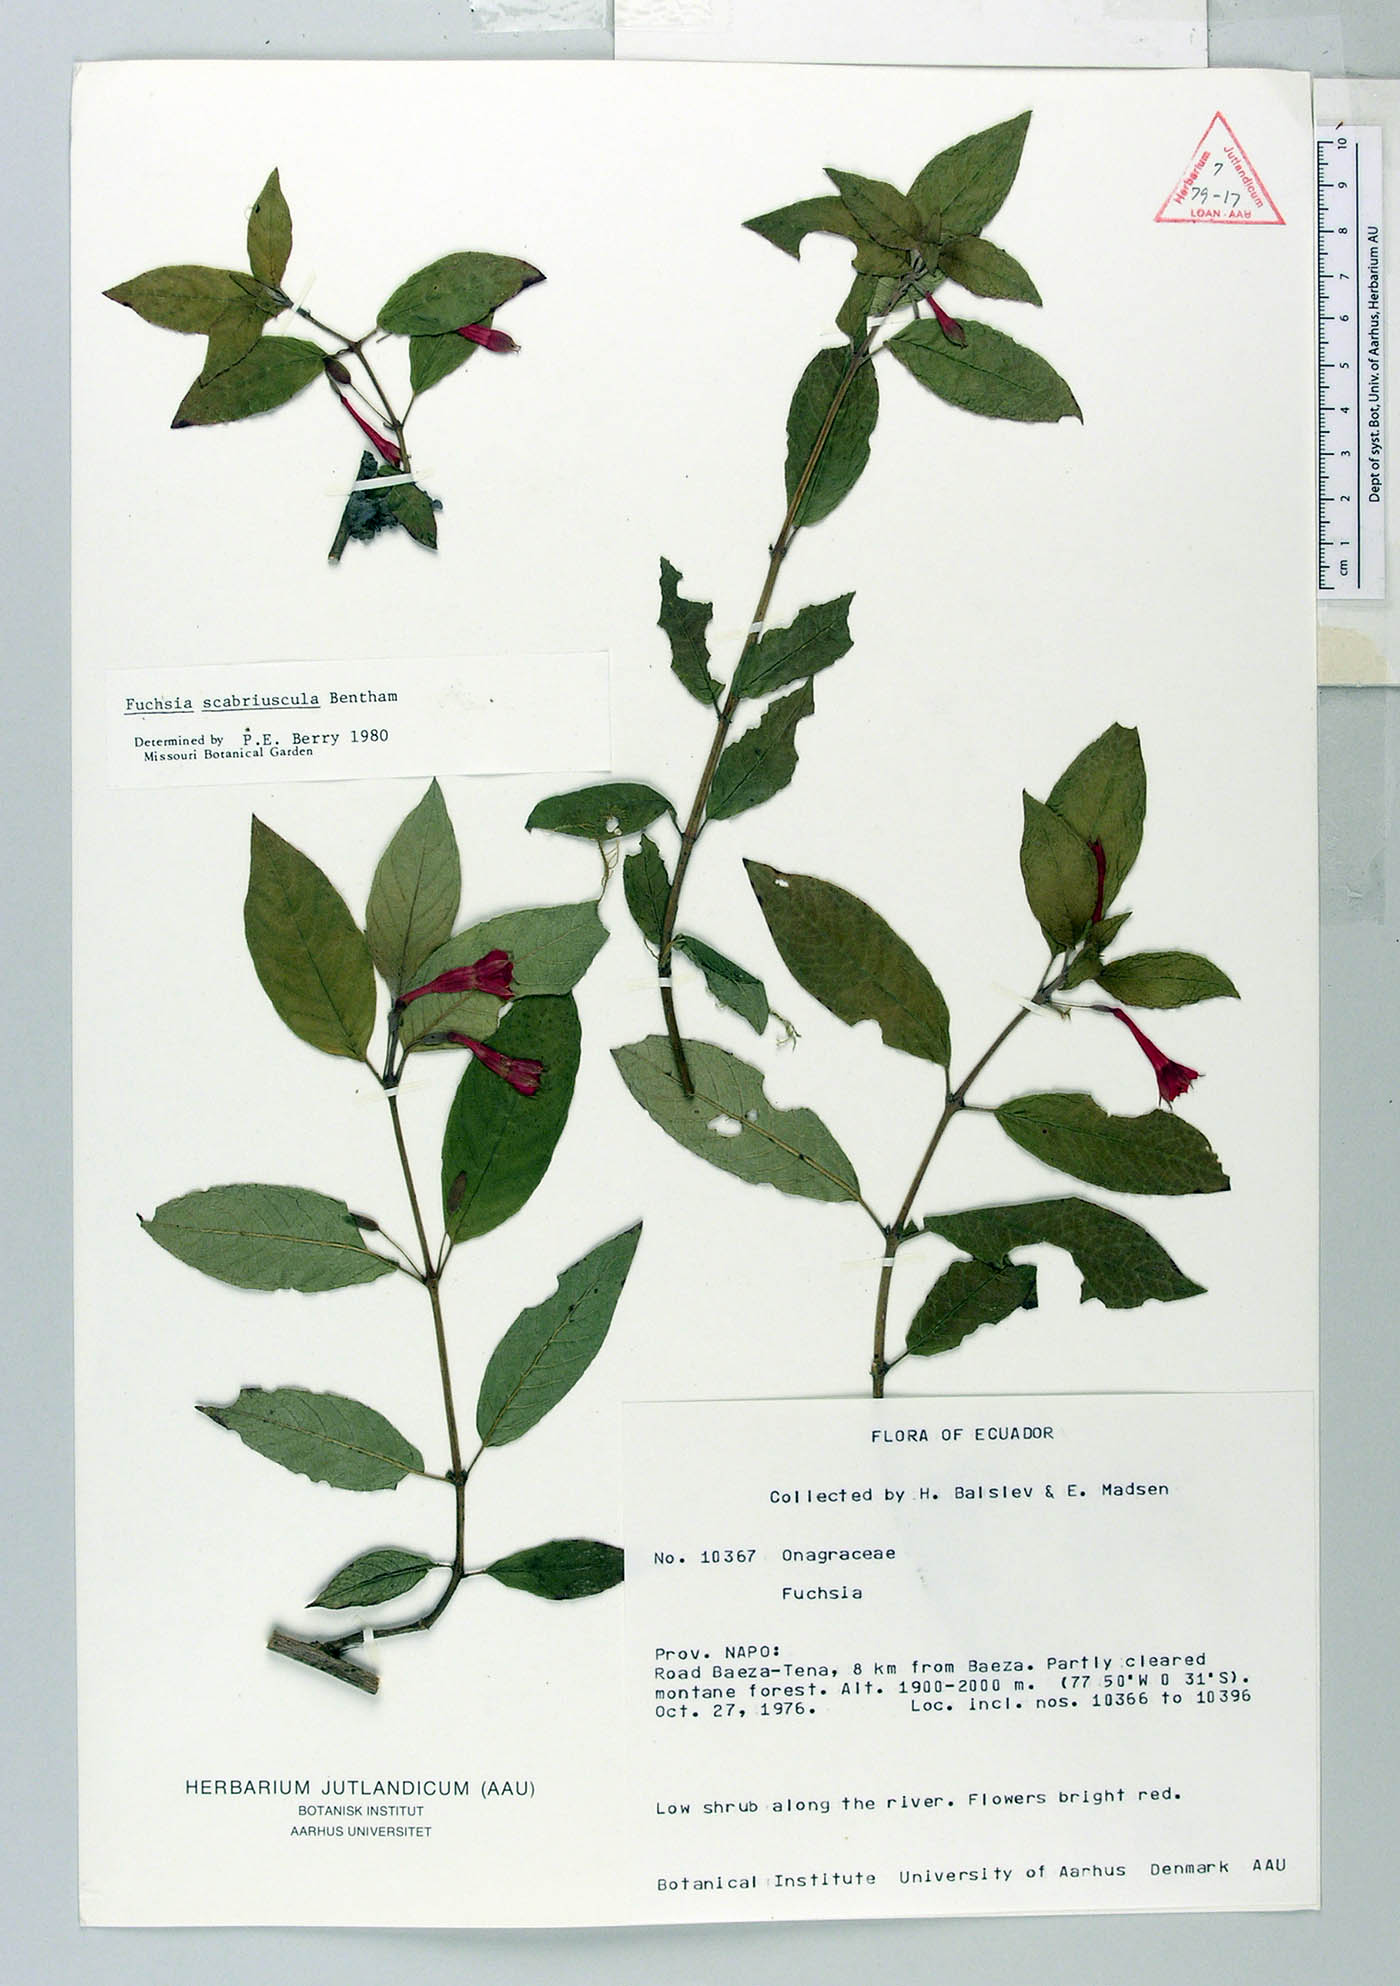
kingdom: Plantae
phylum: Tracheophyta
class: Magnoliopsida
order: Myrtales
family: Onagraceae
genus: Fuchsia
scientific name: Fuchsia scabriuscula
